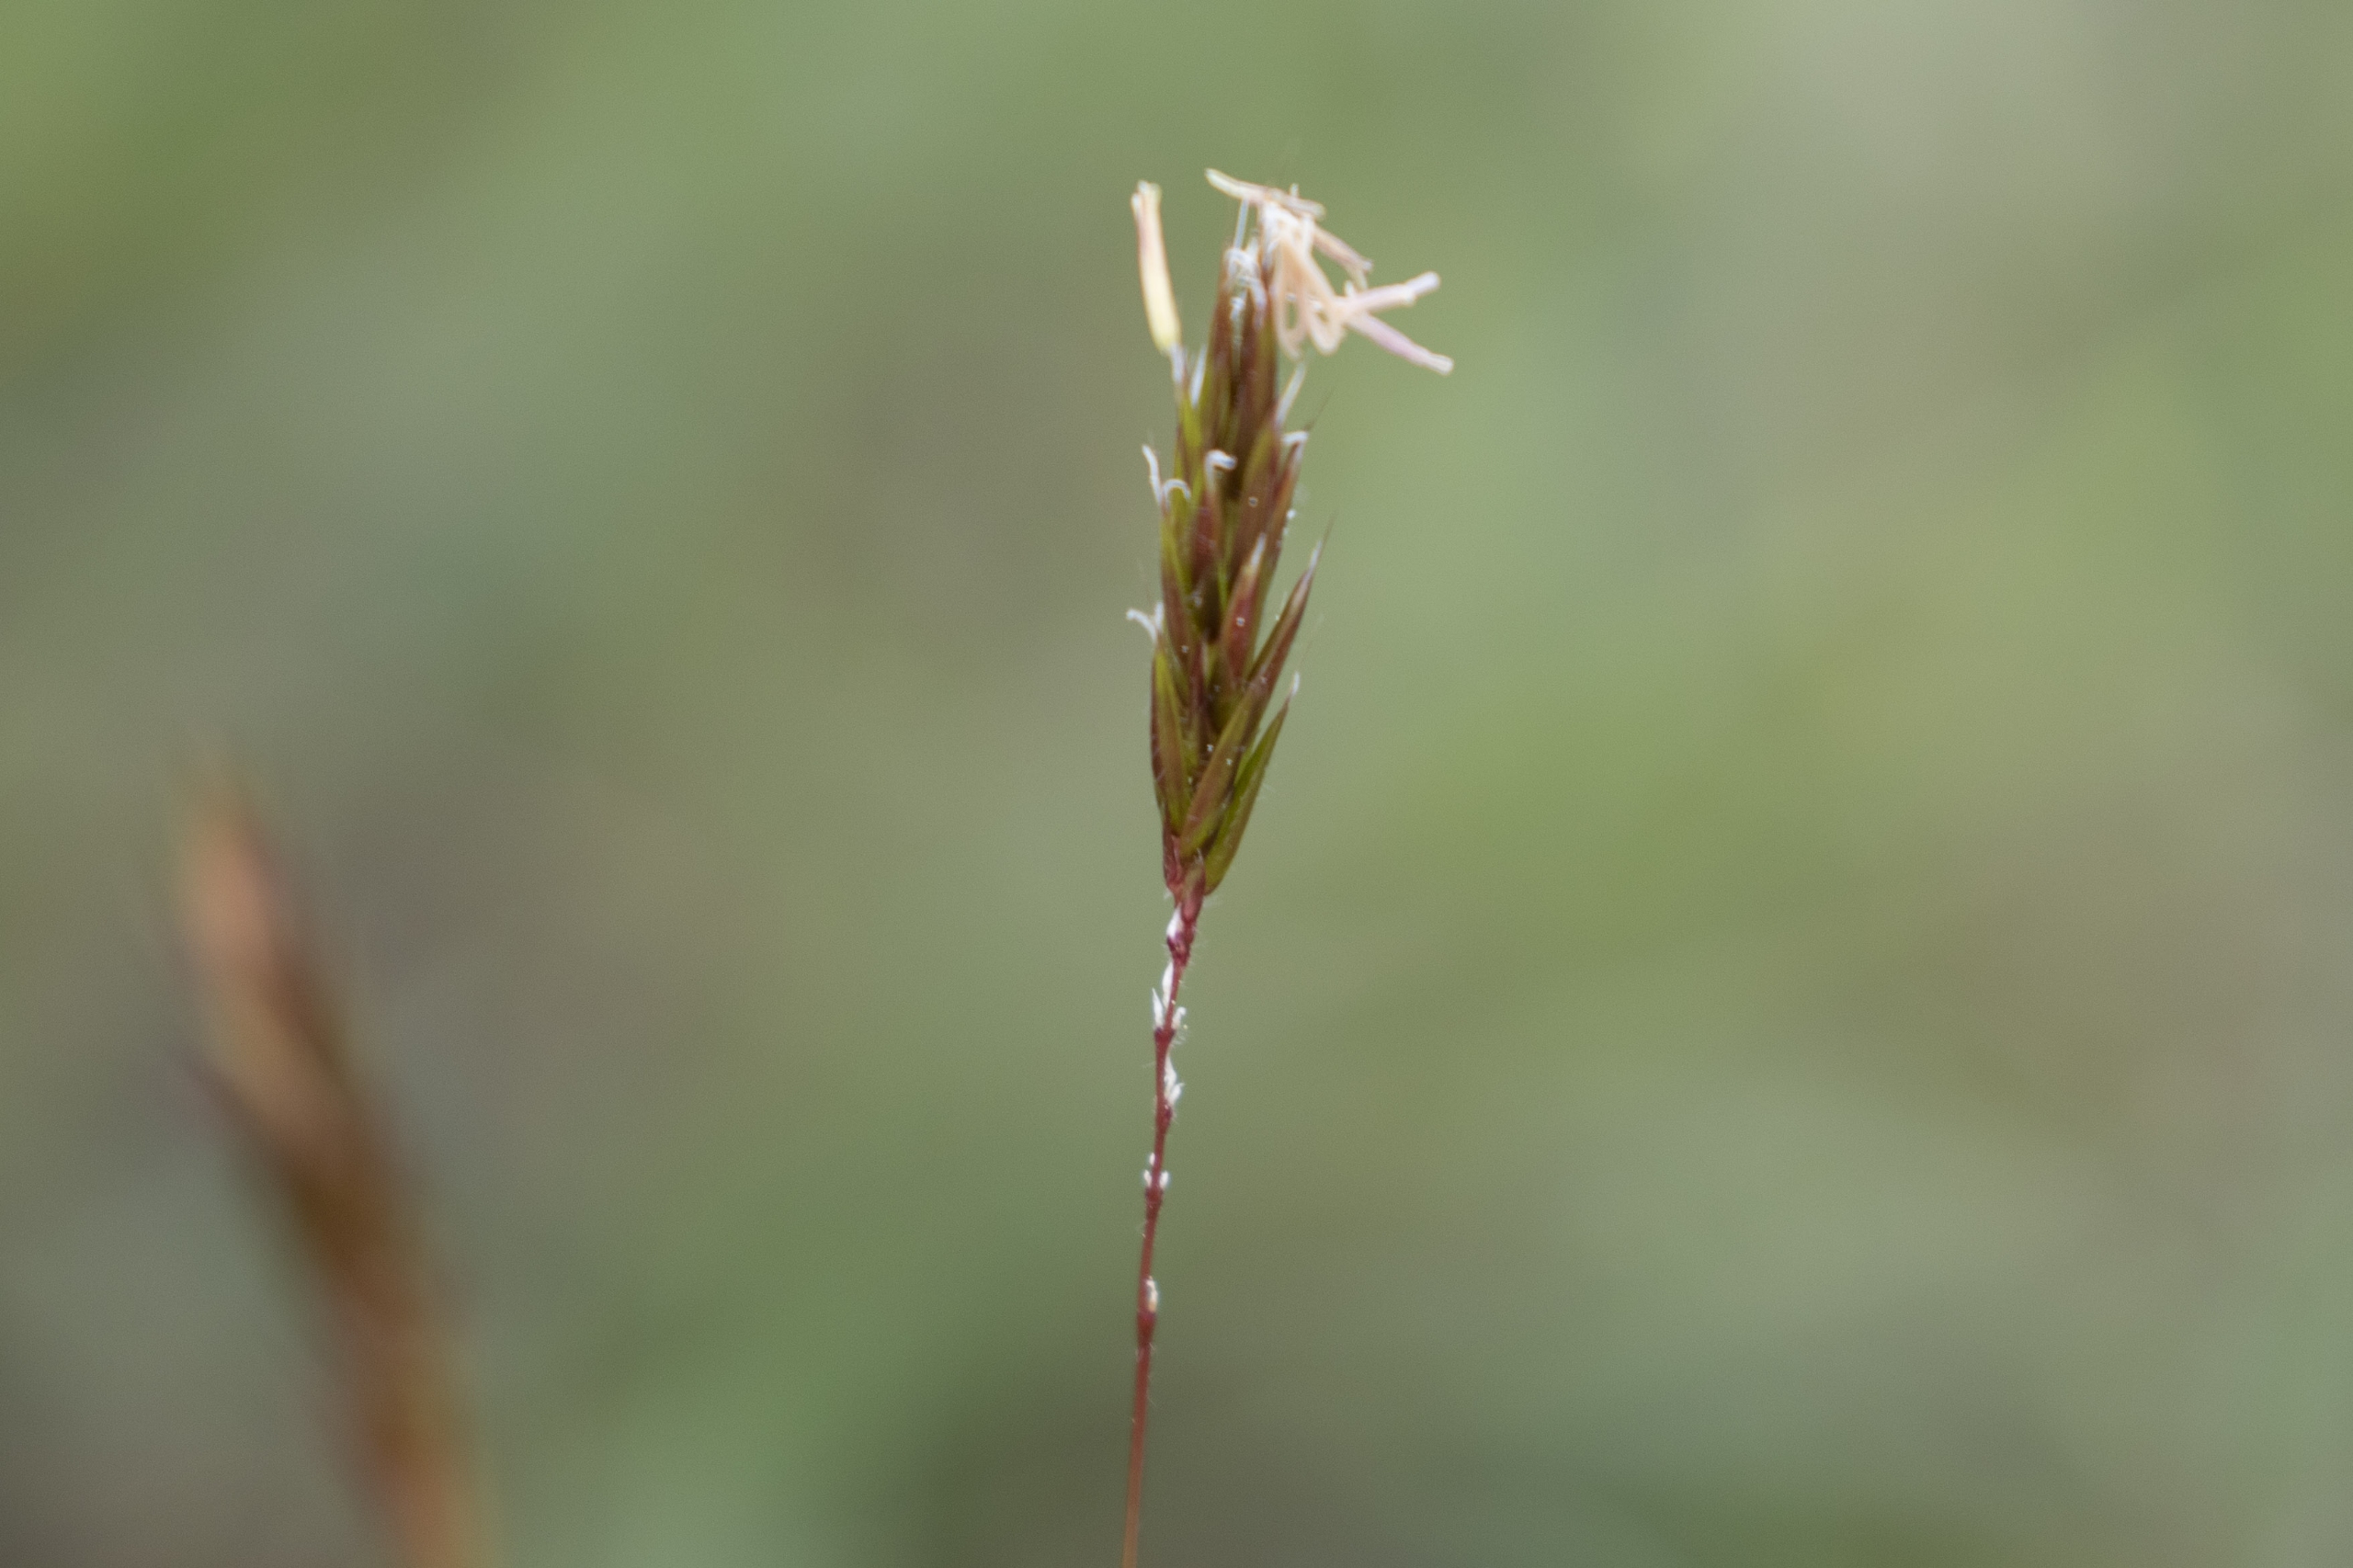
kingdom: Plantae
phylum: Tracheophyta
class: Liliopsida
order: Poales
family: Poaceae
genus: Anthoxanthum
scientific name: Anthoxanthum odoratum
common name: Vellugtende gulaks
